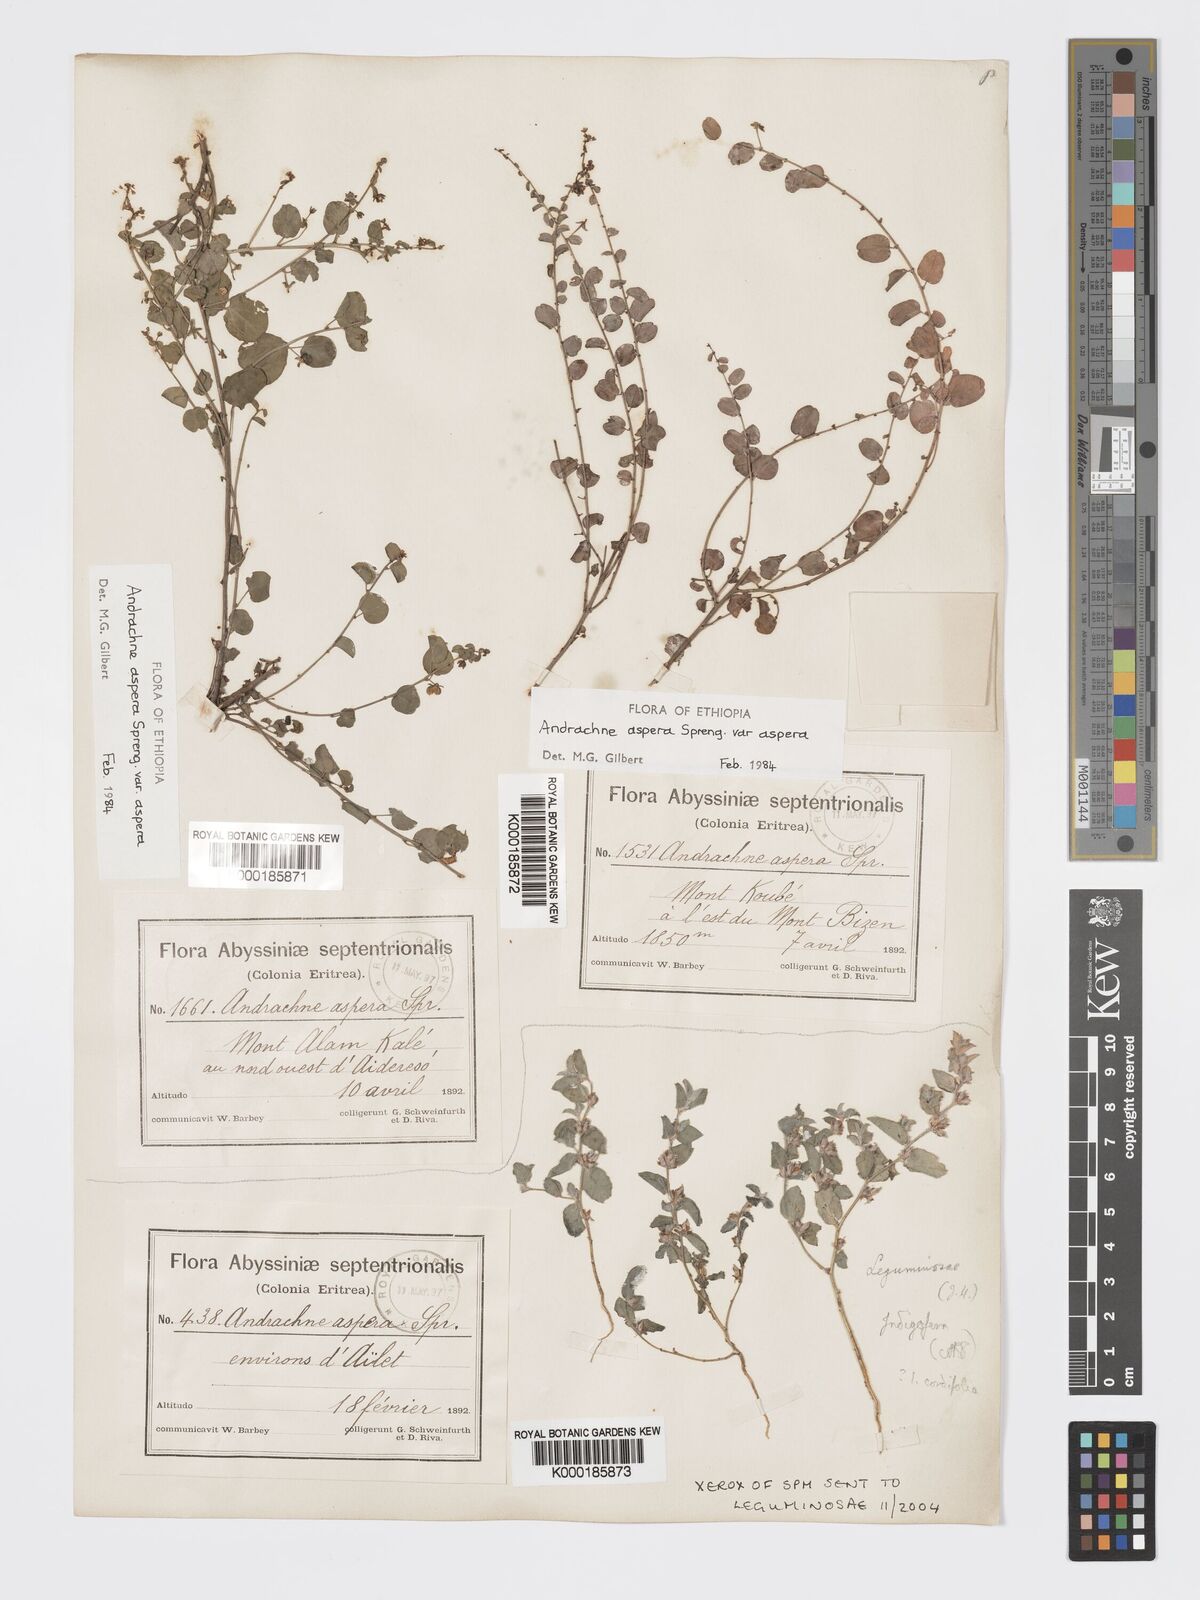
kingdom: Plantae
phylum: Tracheophyta
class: Magnoliopsida
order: Malpighiales
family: Phyllanthaceae
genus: Andrachne
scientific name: Andrachne aspera
